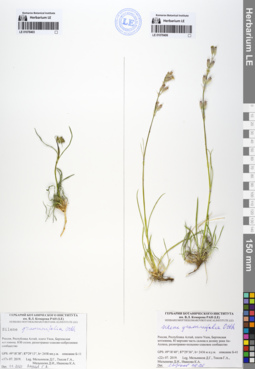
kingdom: Plantae
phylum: Tracheophyta
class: Magnoliopsida
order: Caryophyllales
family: Caryophyllaceae
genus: Silene
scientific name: Silene graminifolia
